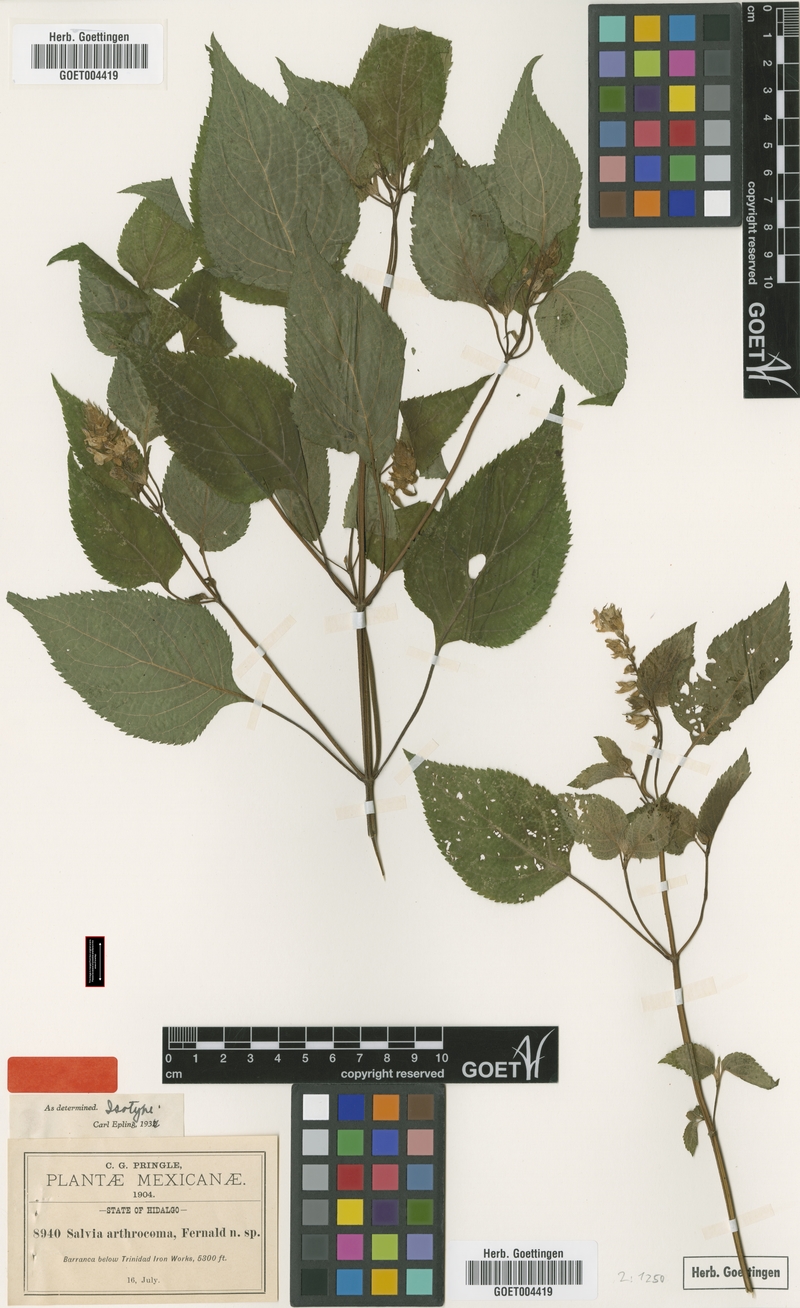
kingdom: Plantae
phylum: Tracheophyta
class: Magnoliopsida
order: Lamiales
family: Lamiaceae
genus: Salvia
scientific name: Salvia arthrocoma
